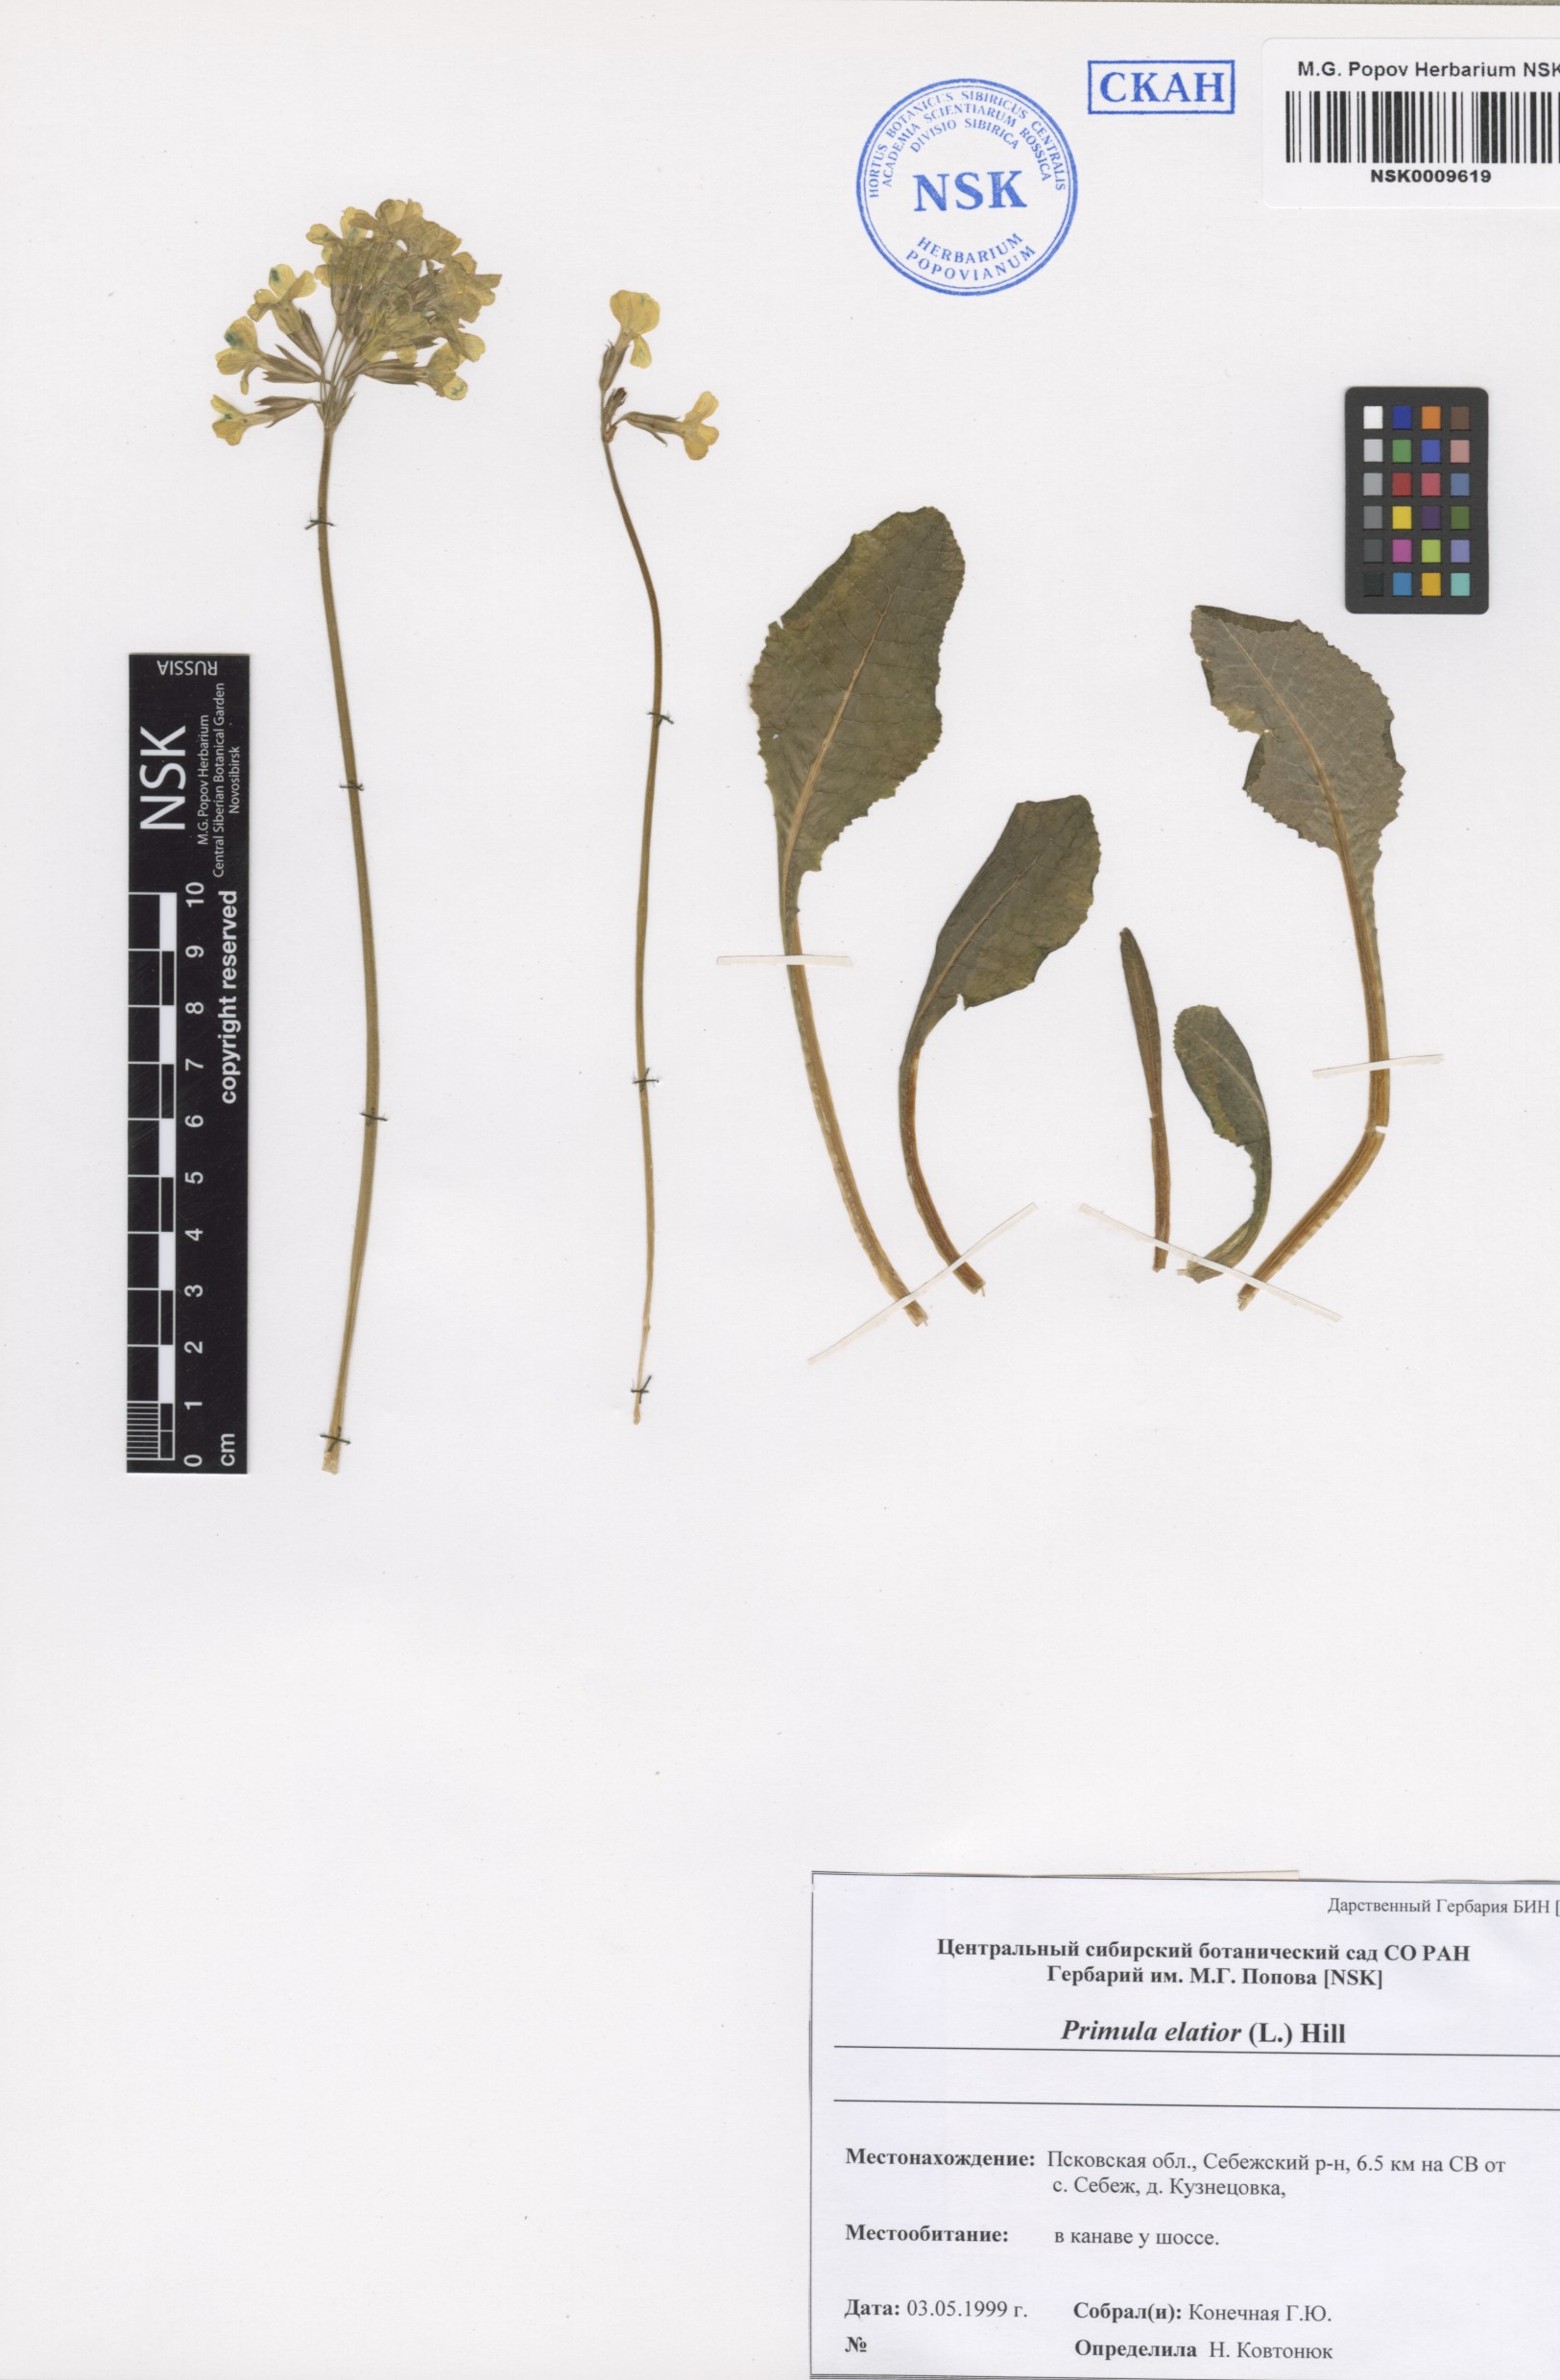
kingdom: Plantae
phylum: Tracheophyta
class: Magnoliopsida
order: Ericales
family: Primulaceae
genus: Primula
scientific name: Primula elatior
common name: Oxlip
